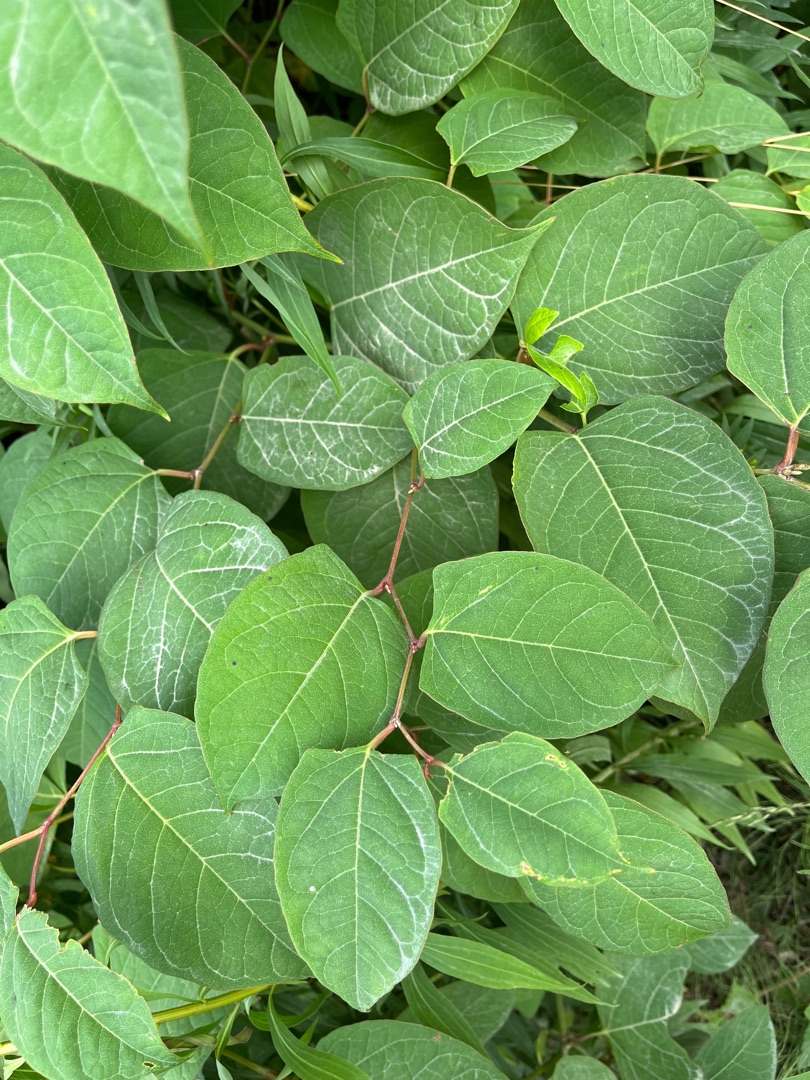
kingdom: Plantae
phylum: Tracheophyta
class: Magnoliopsida
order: Caryophyllales
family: Polygonaceae
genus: Reynoutria
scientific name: Reynoutria japonica
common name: Japan-pileurt
